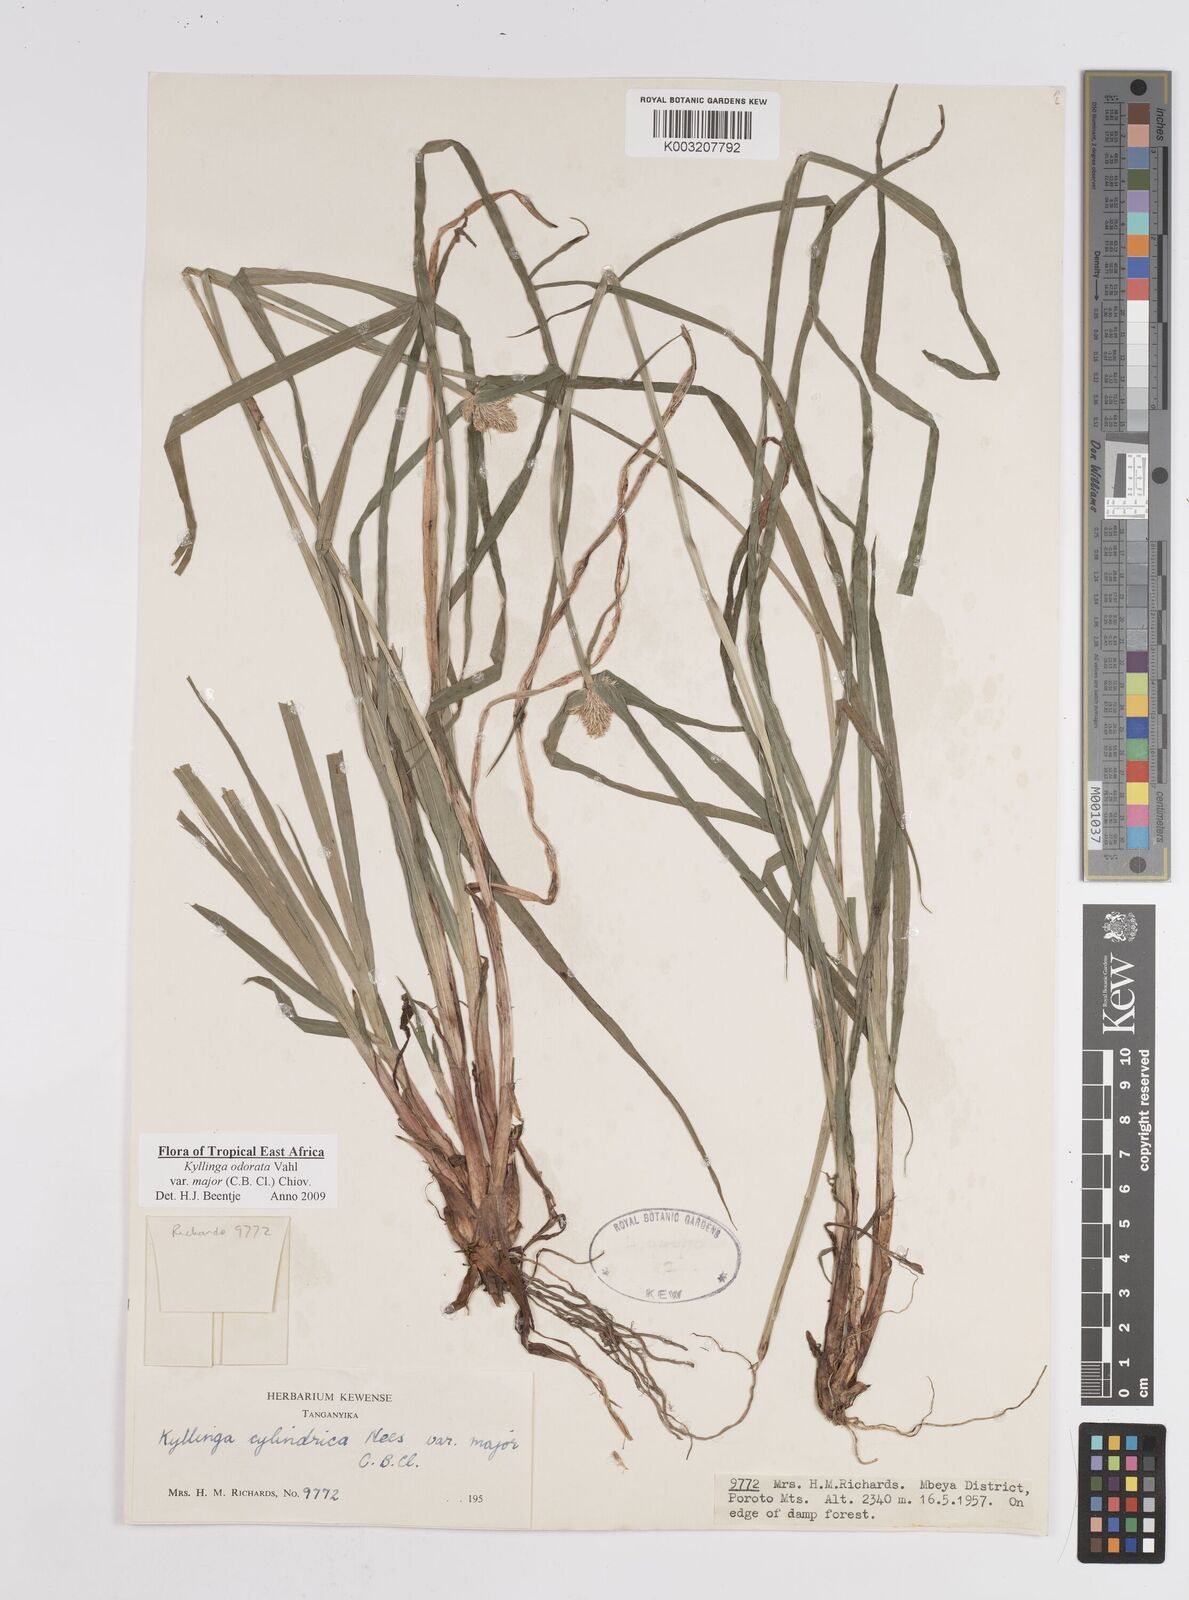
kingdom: Plantae
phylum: Tracheophyta
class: Liliopsida
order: Poales
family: Cyperaceae
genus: Cyperus
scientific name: Cyperus
